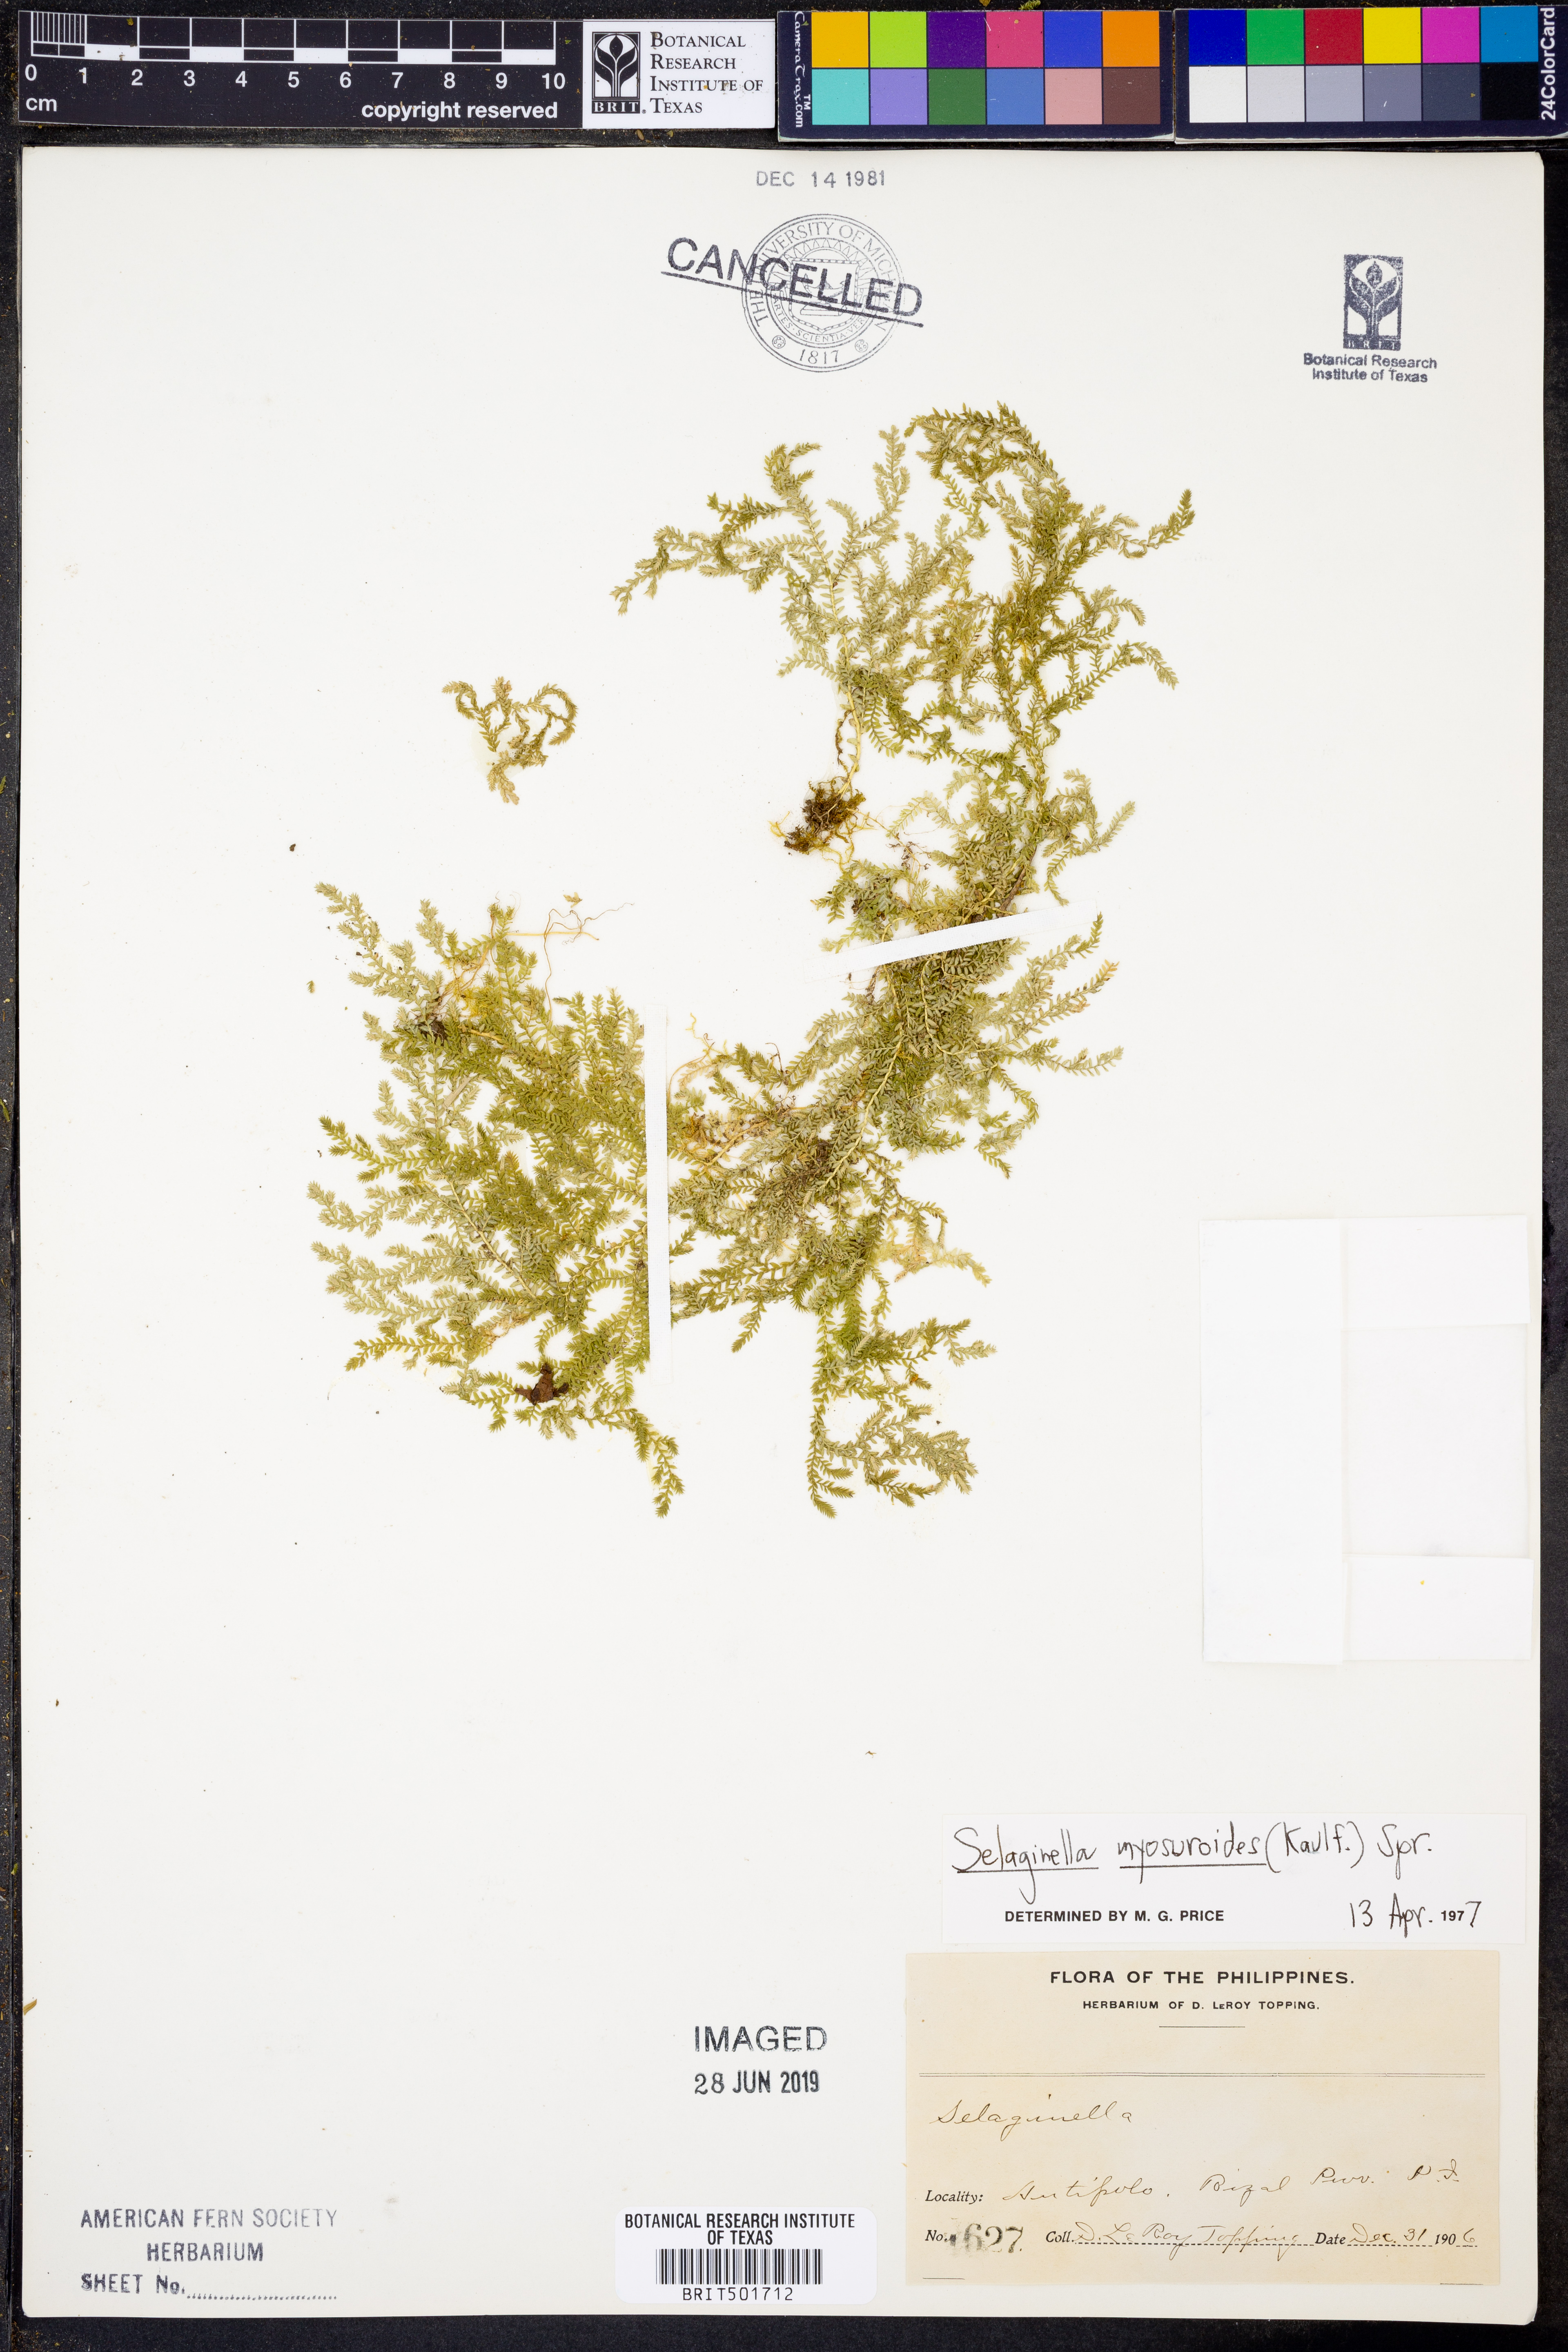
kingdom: Plantae
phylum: Tracheophyta
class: Lycopodiopsida
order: Selaginellales
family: Selaginellaceae
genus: Selaginella
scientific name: Selaginella myosuroides
